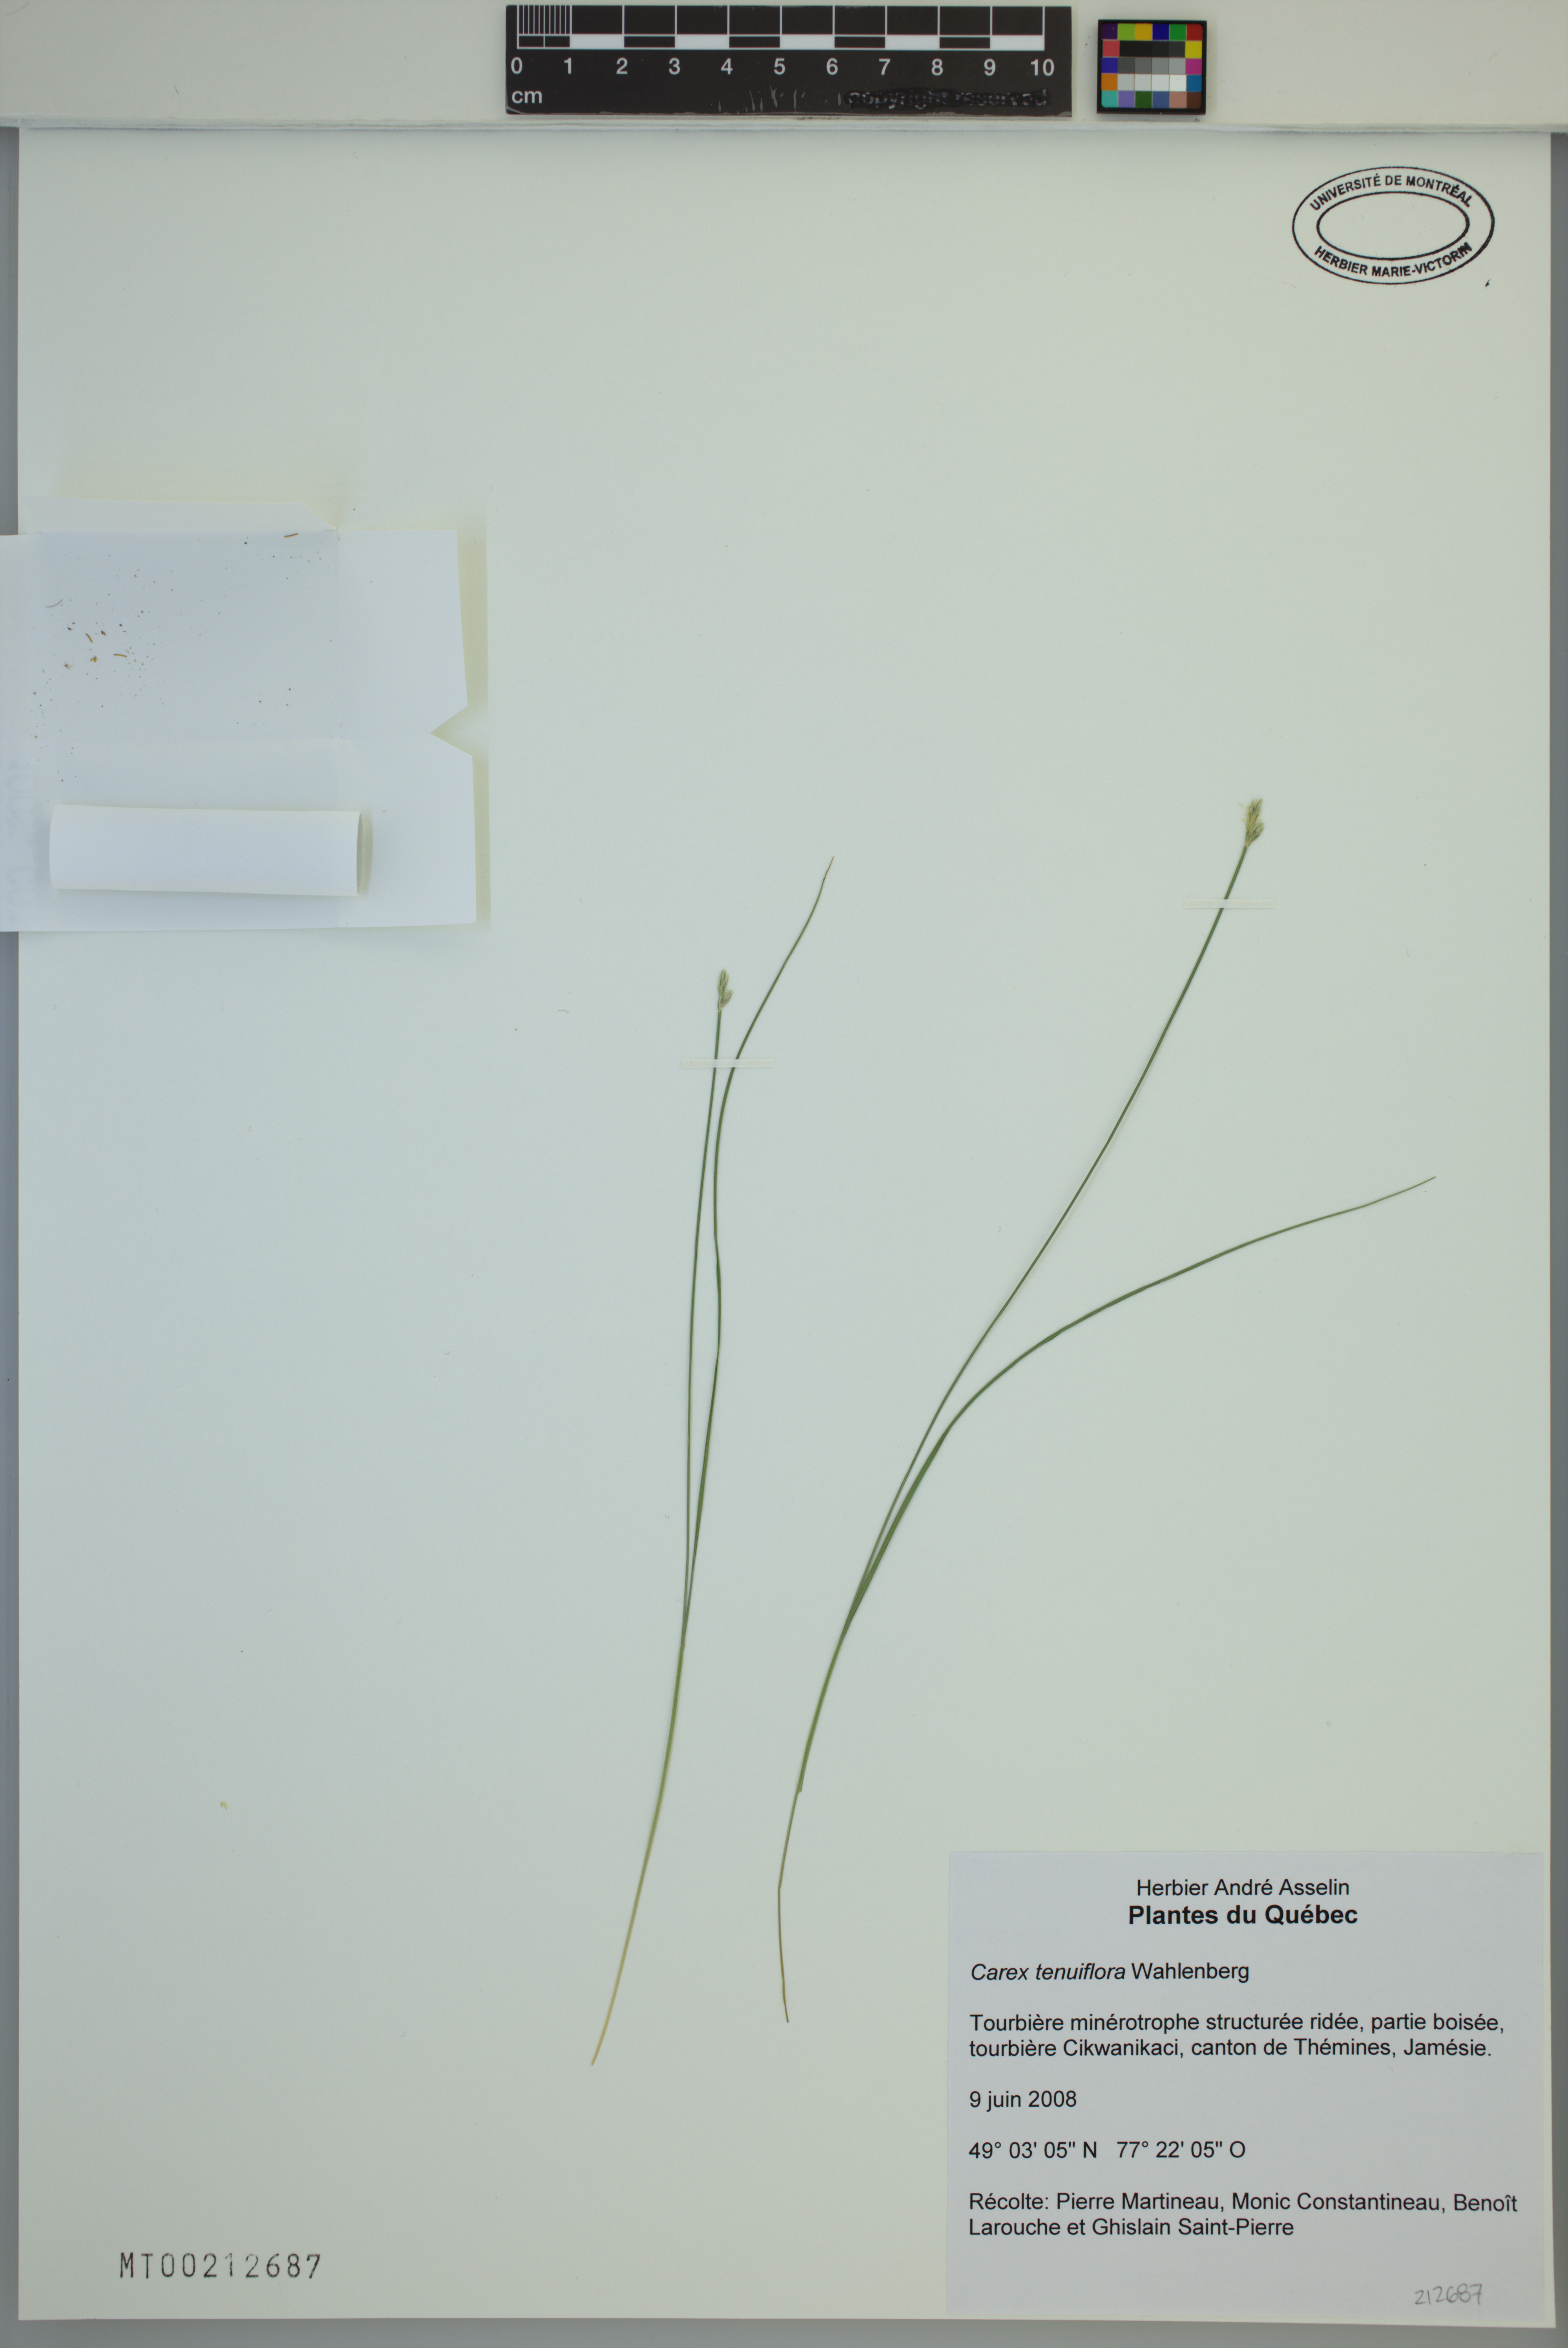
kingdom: Plantae
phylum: Tracheophyta
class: Liliopsida
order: Poales
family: Cyperaceae
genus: Carex
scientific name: Carex tenuiflora
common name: Sparse-flowered sedge
